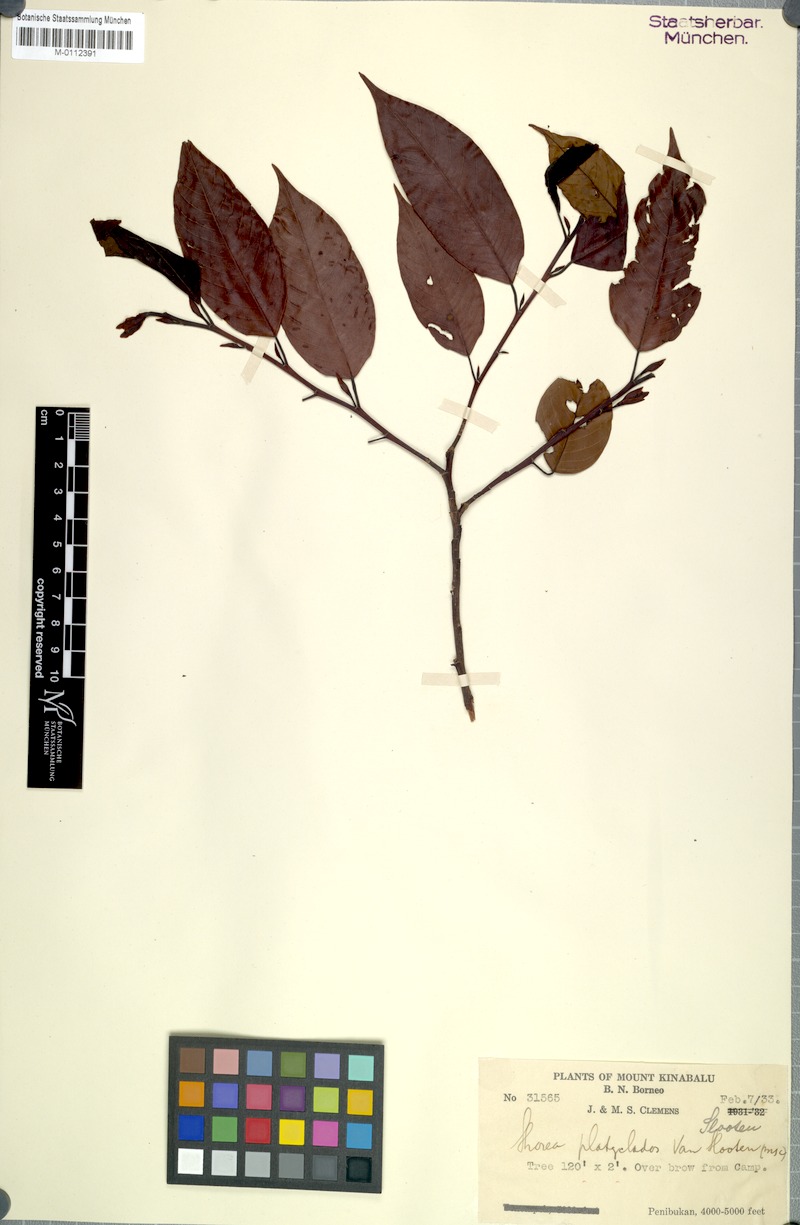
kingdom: Plantae
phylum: Tracheophyta
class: Magnoliopsida
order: Malvales
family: Dipterocarpaceae
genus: Shorea
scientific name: Shorea platyclados
